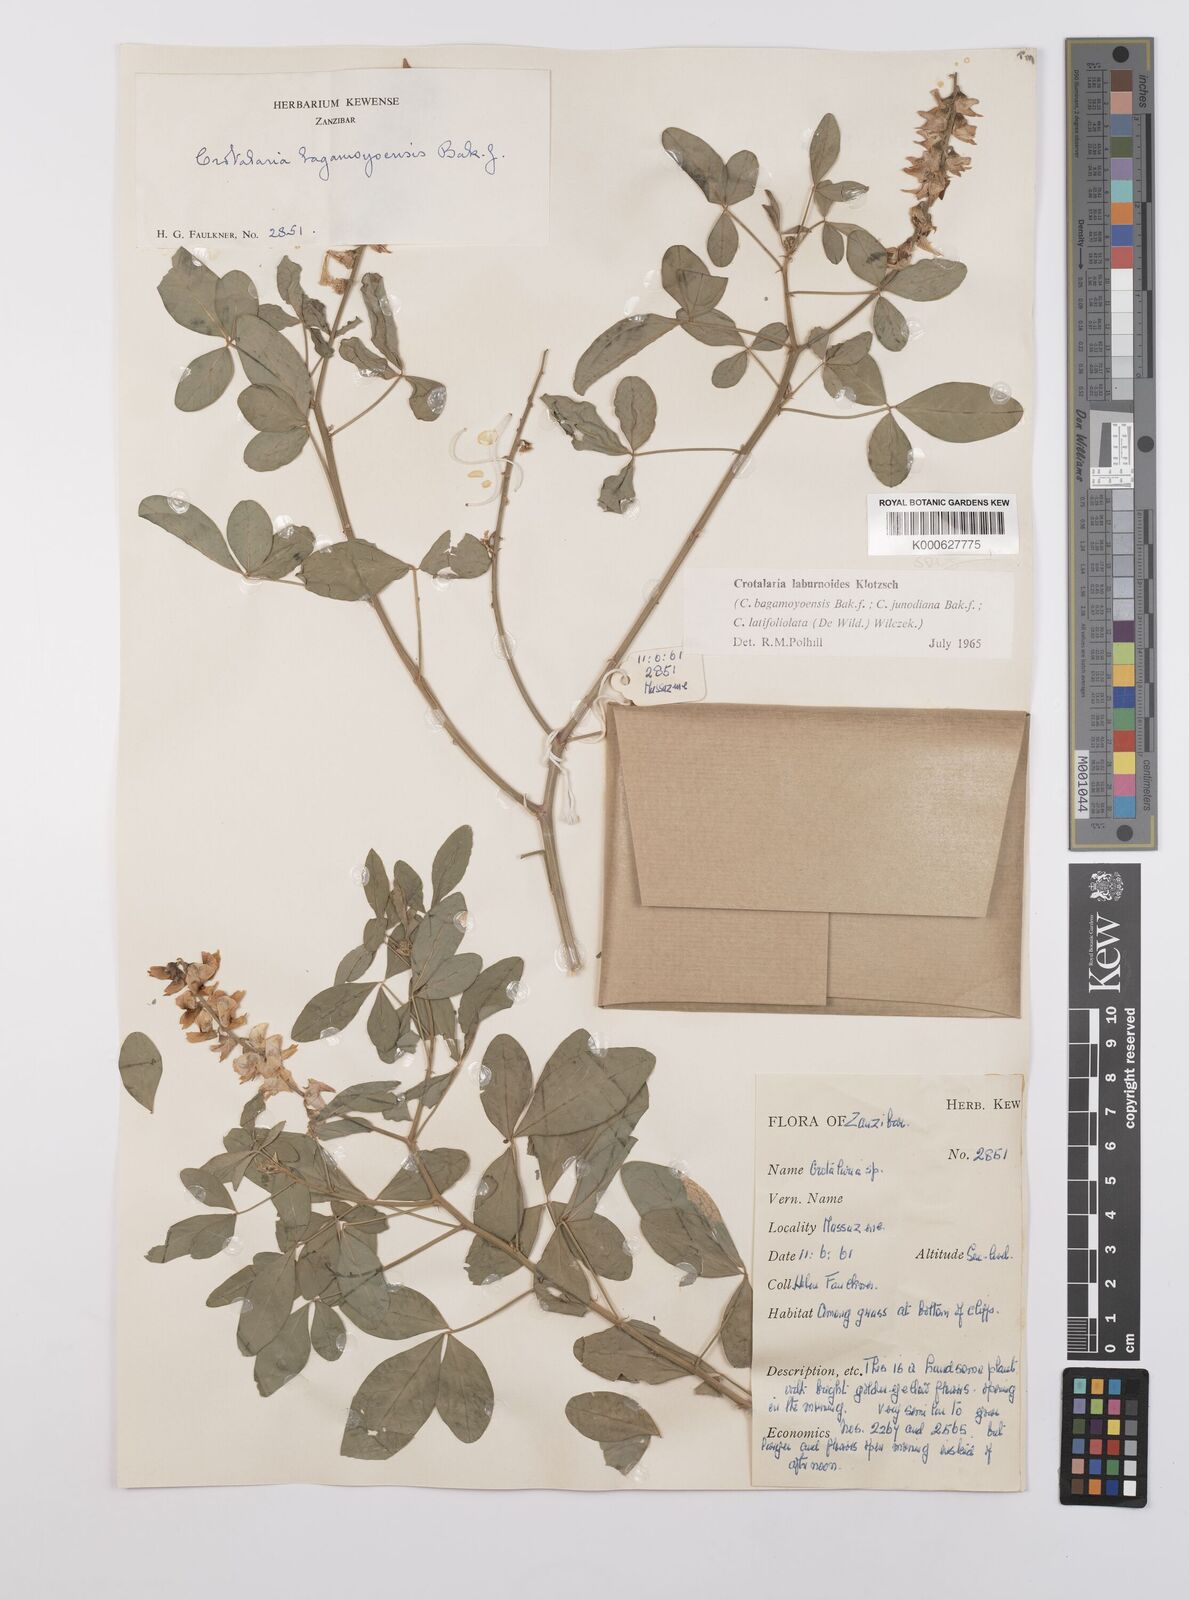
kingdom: Plantae
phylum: Tracheophyta
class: Magnoliopsida
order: Fabales
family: Fabaceae
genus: Crotalaria
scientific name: Crotalaria laburnoides
